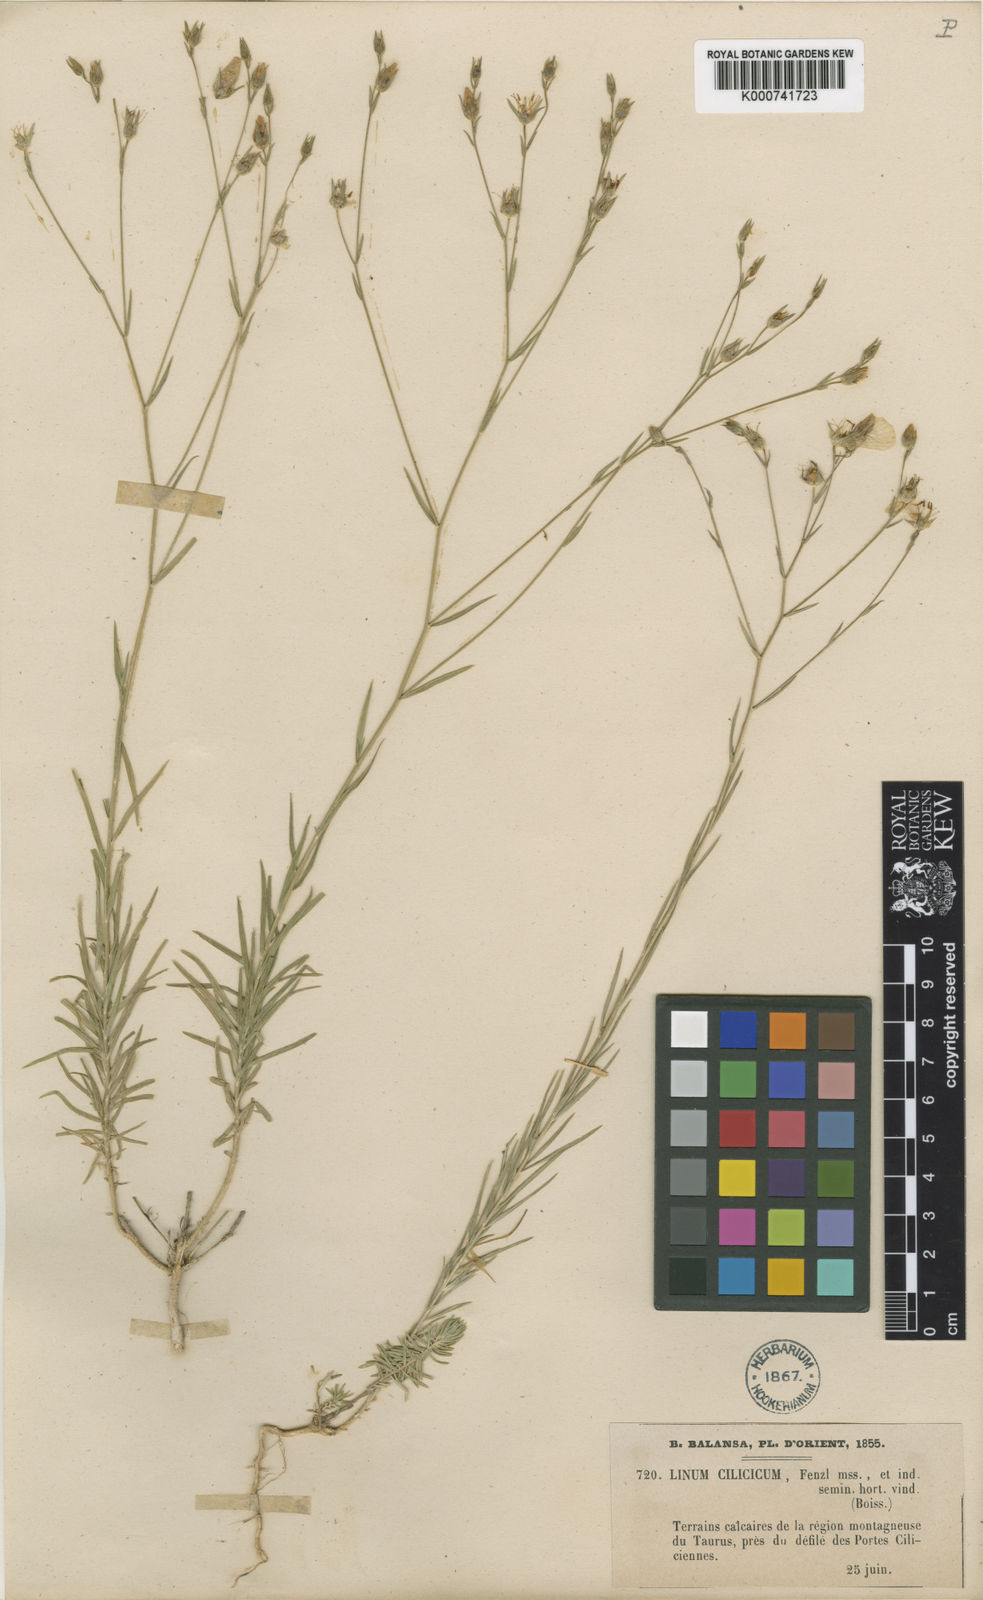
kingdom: Plantae
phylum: Tracheophyta
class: Magnoliopsida
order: Malpighiales
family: Linaceae
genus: Linum
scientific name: Linum tenuifolium
